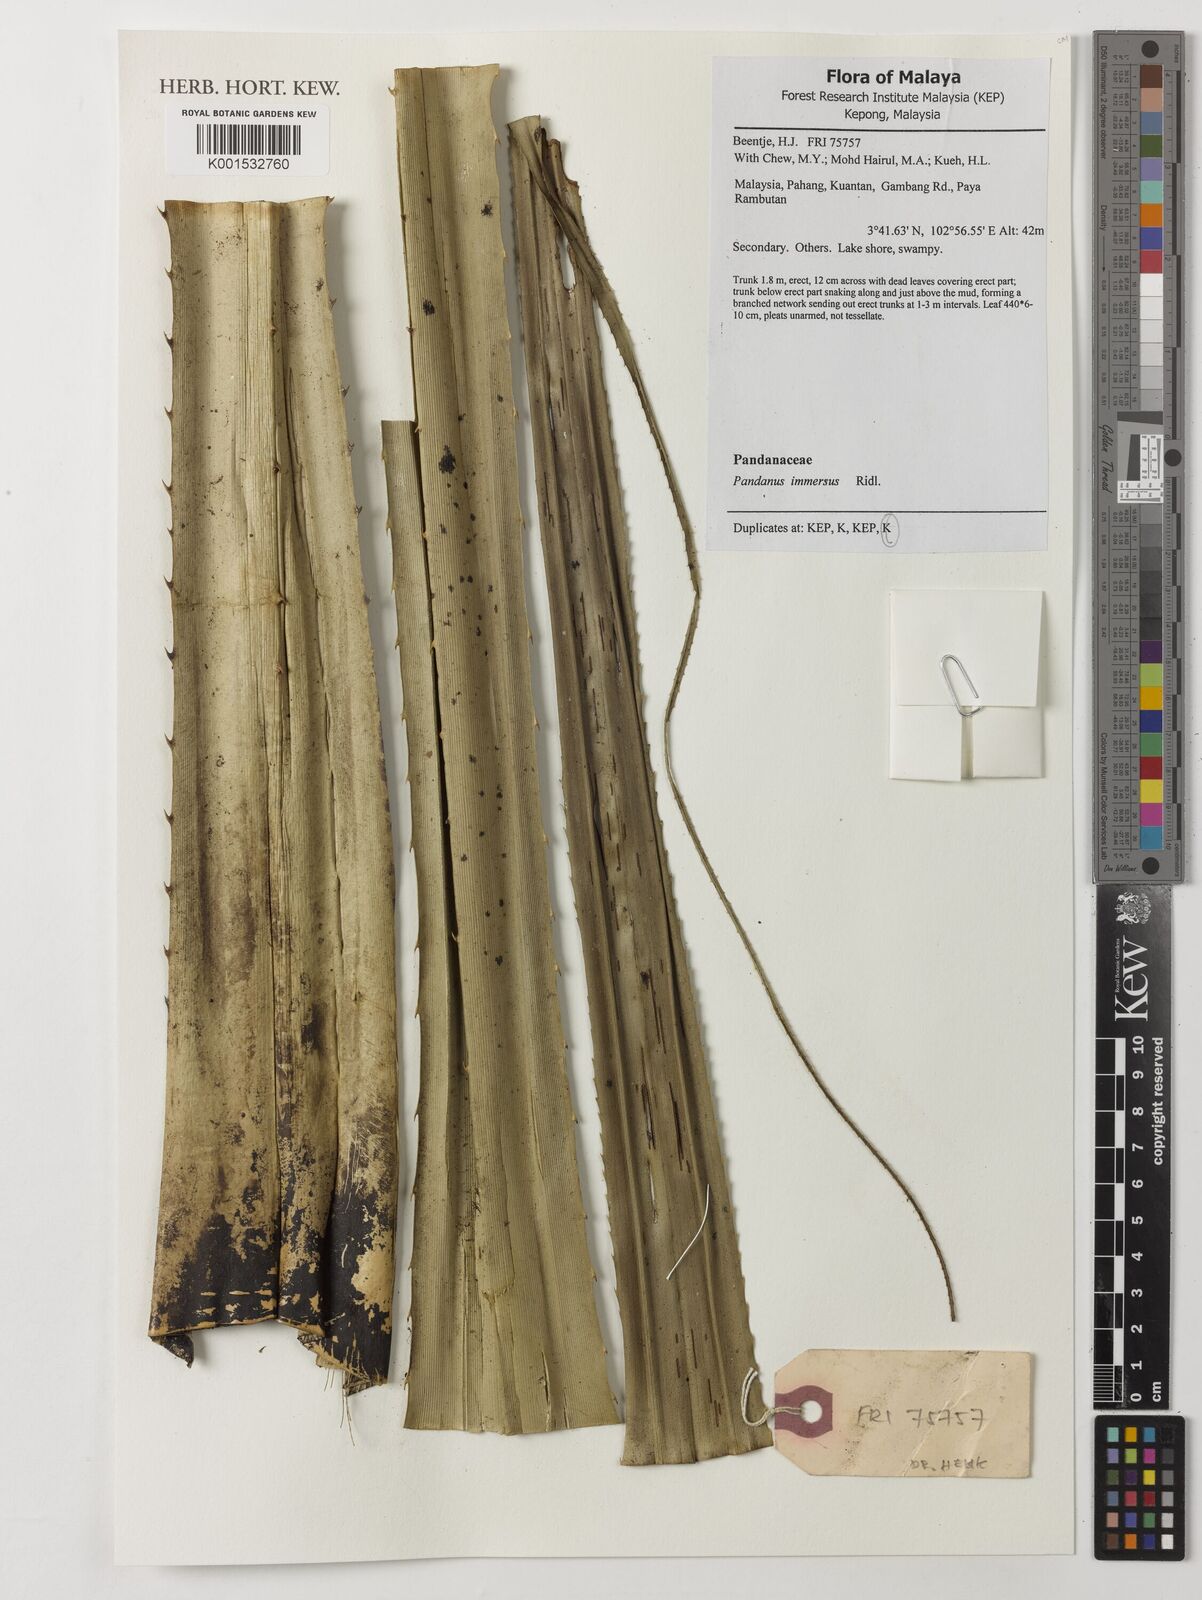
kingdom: Plantae
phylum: Tracheophyta
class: Liliopsida
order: Pandanales
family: Pandanaceae
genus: Pandanus
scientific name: Pandanus immersus
